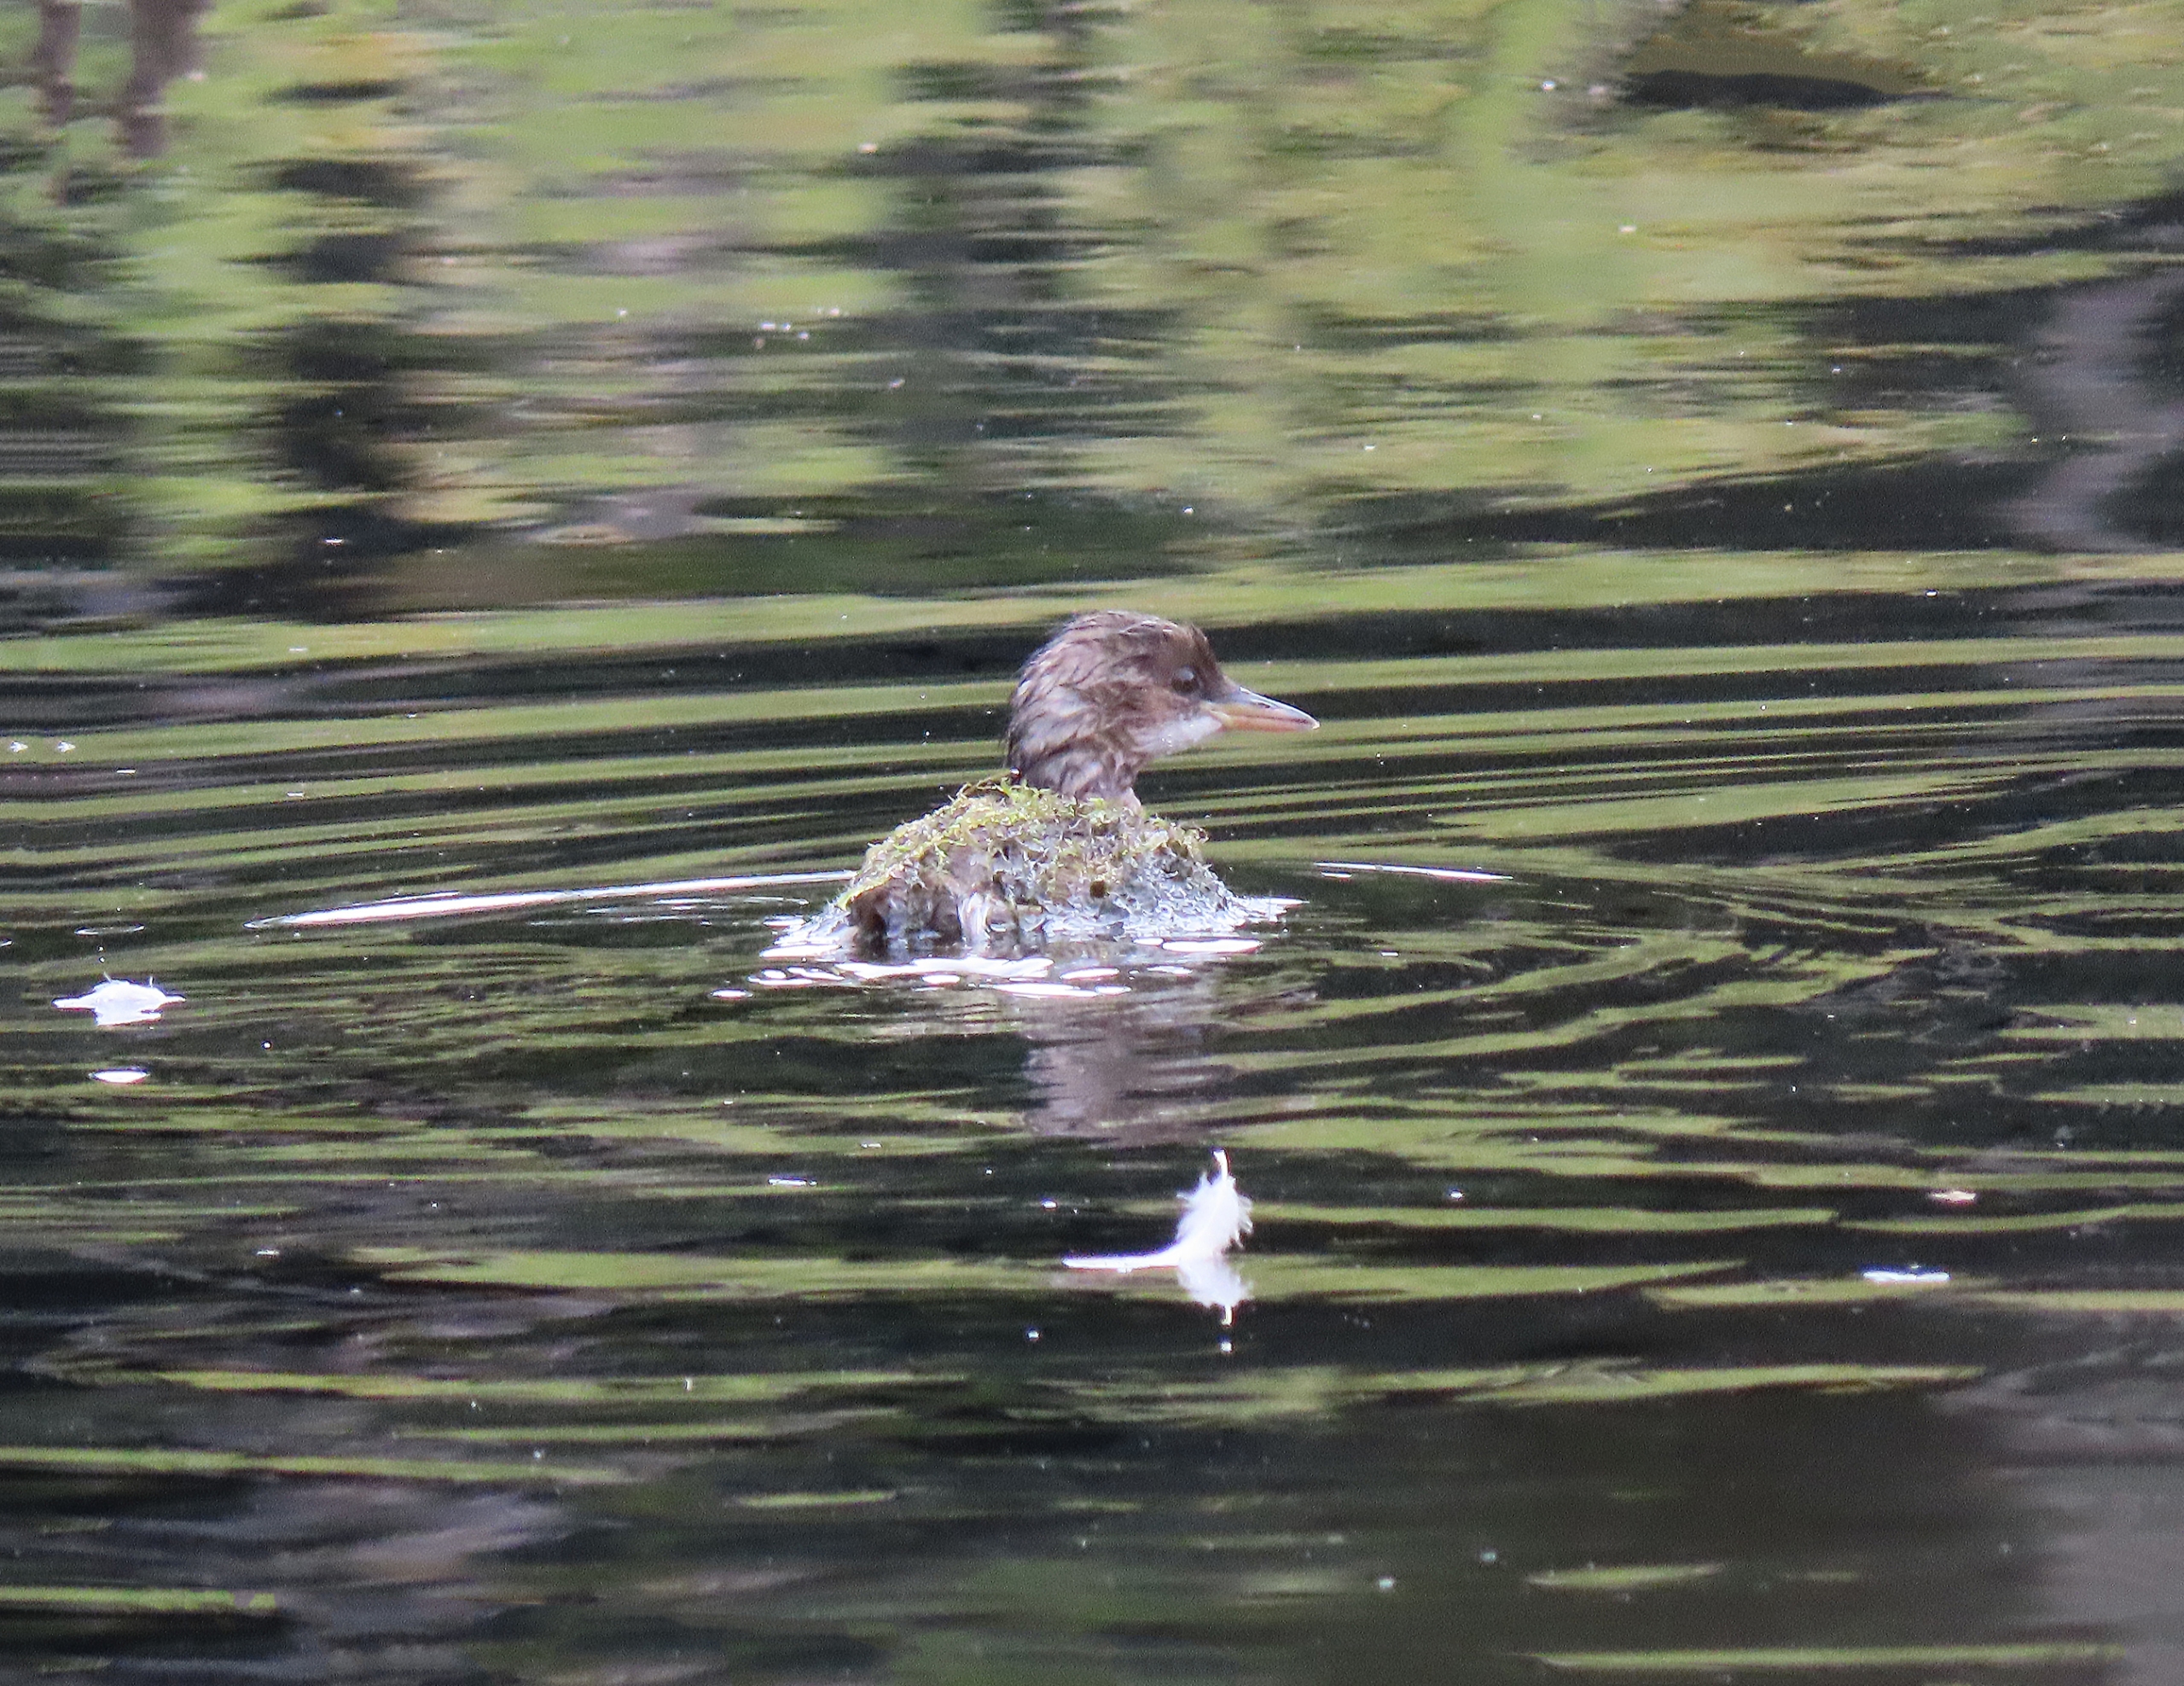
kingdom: Animalia
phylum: Chordata
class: Aves
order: Podicipediformes
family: Podicipedidae
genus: Tachybaptus
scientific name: Tachybaptus ruficollis
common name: Lille lappedykker
